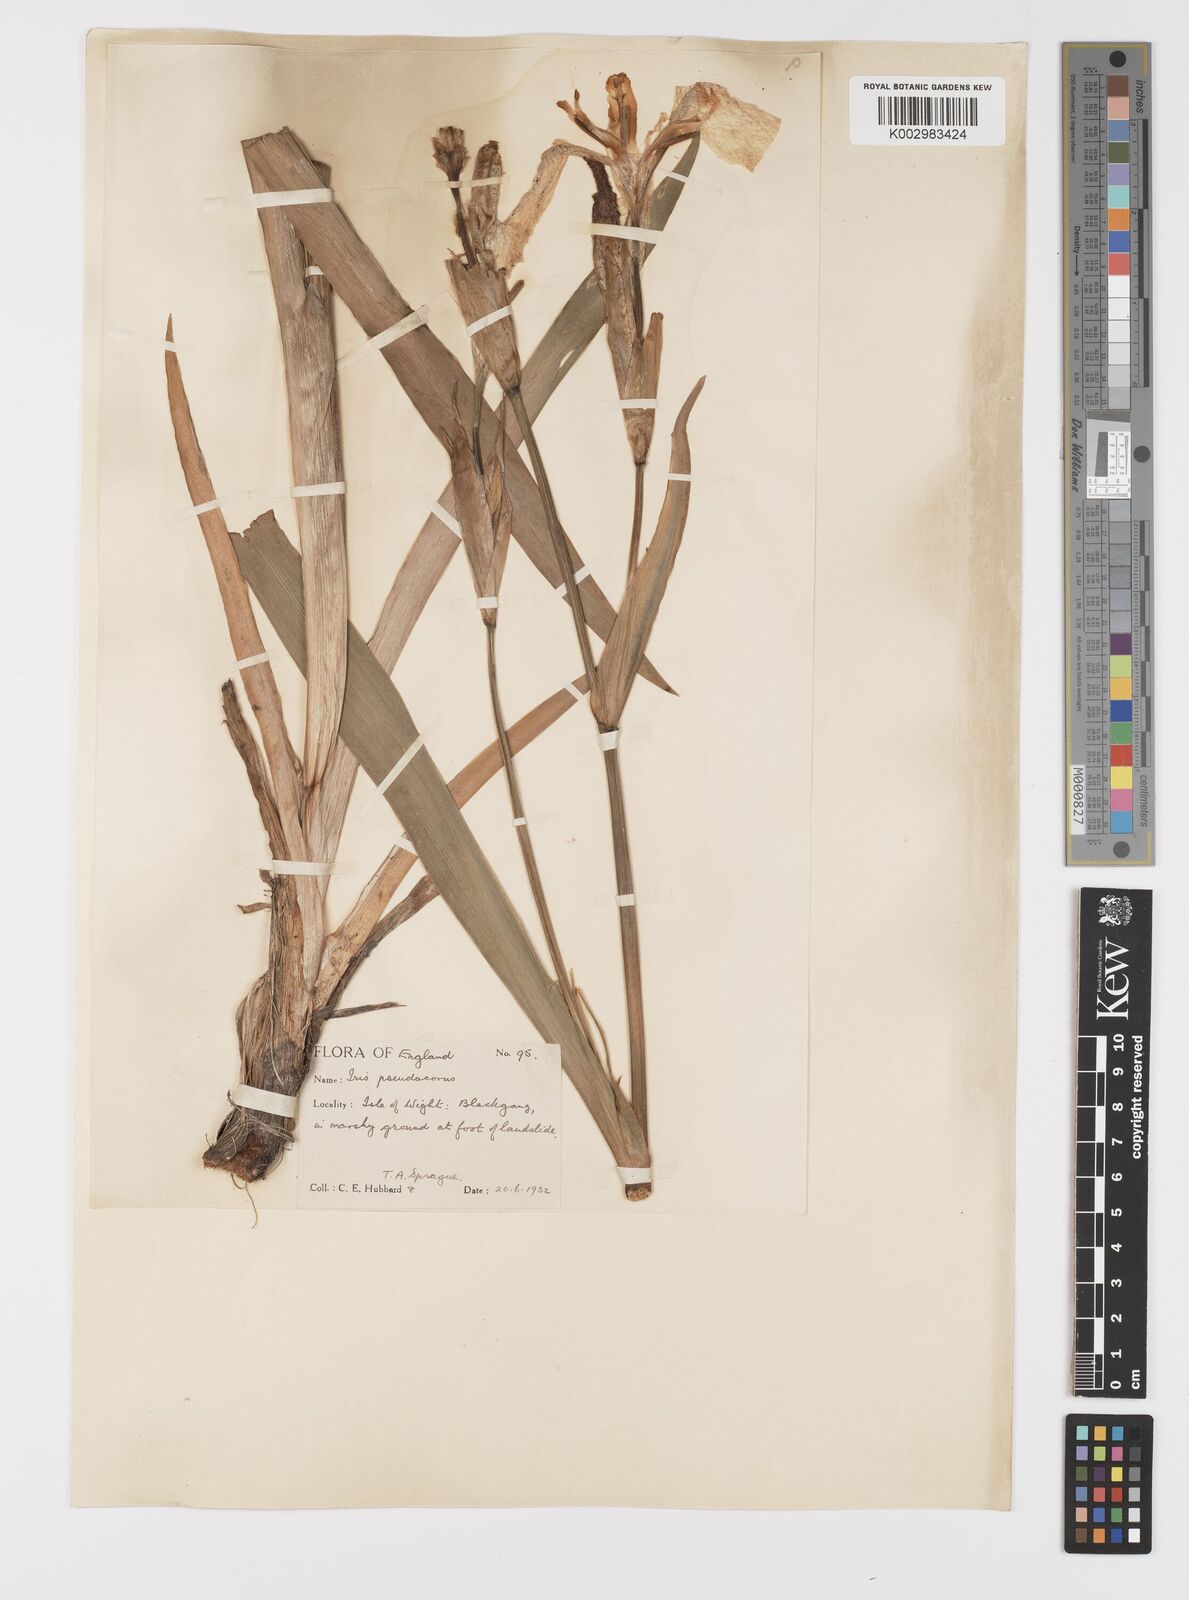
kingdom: Plantae
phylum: Tracheophyta
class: Liliopsida
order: Asparagales
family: Iridaceae
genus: Iris
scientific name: Iris pseudacorus
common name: Yellow flag
